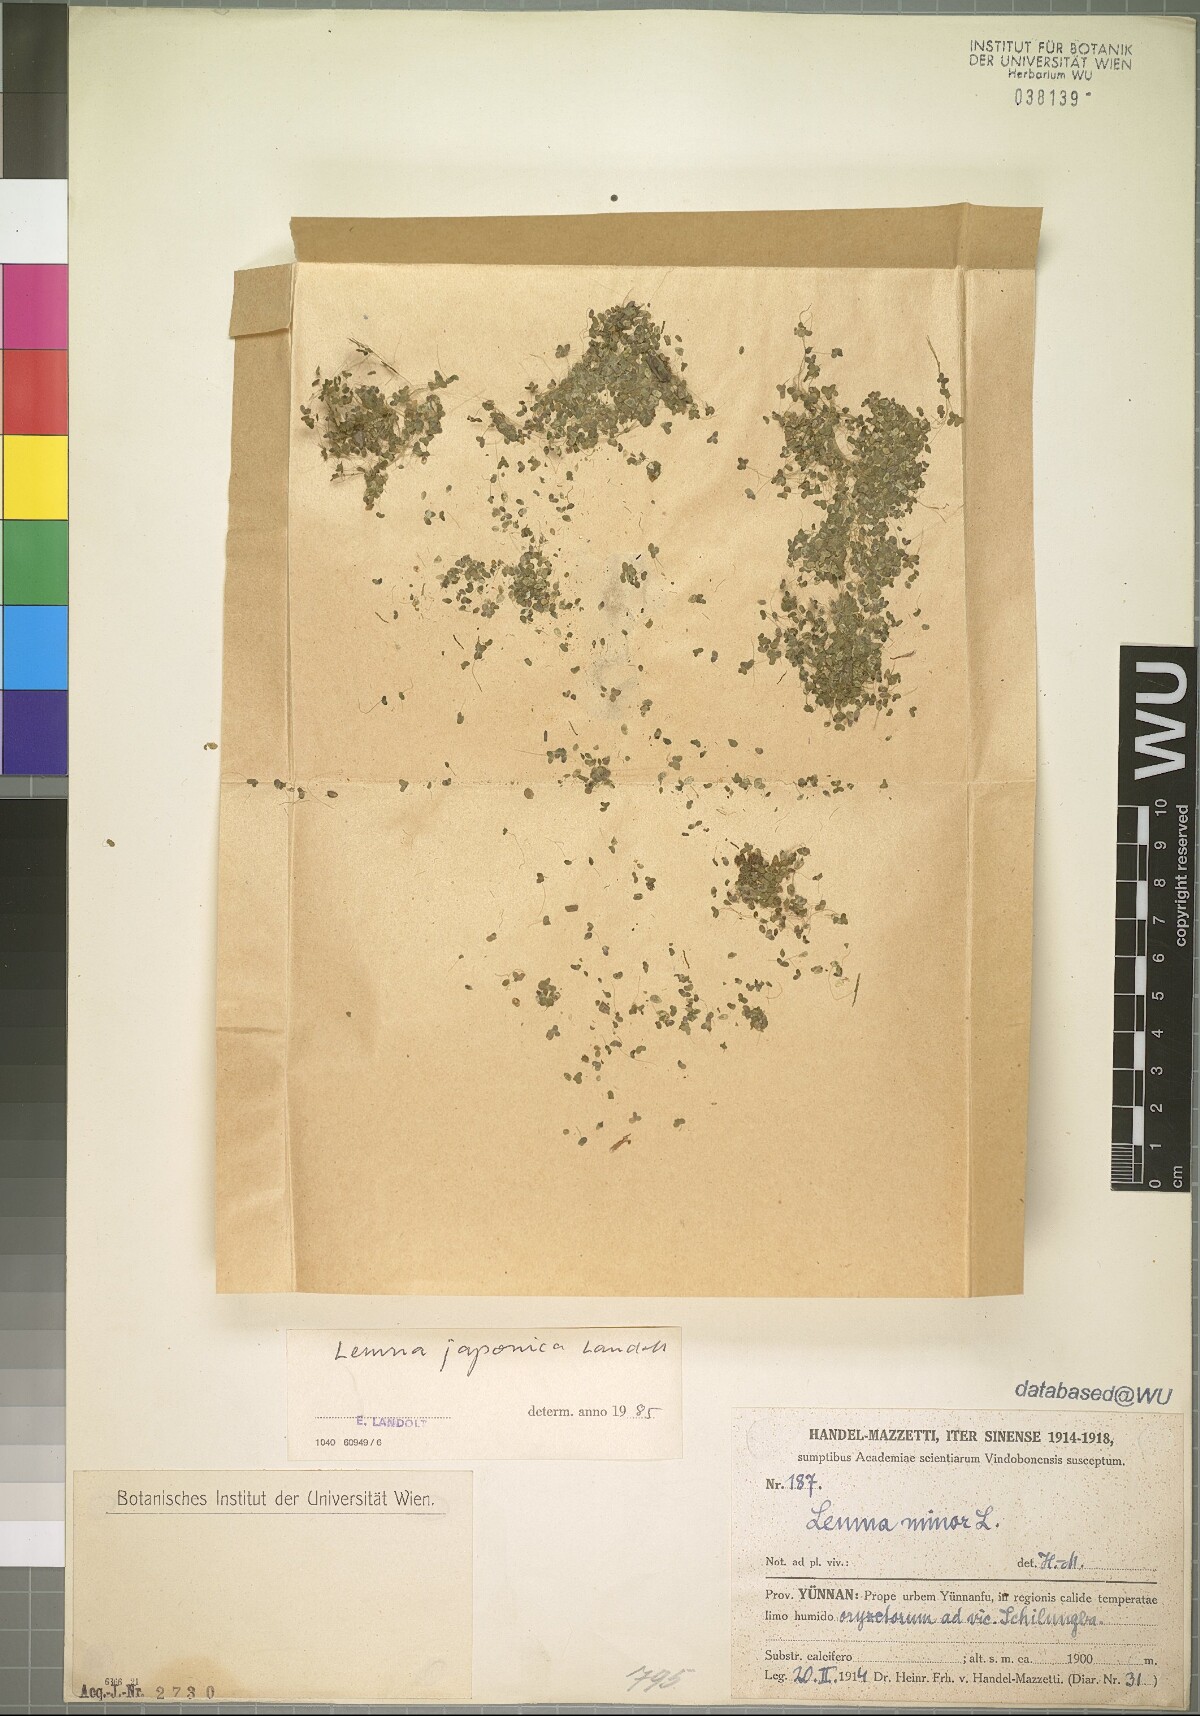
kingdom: Plantae
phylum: Tracheophyta
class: Liliopsida
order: Alismatales
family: Araceae
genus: Lemna
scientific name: Lemna japonica
